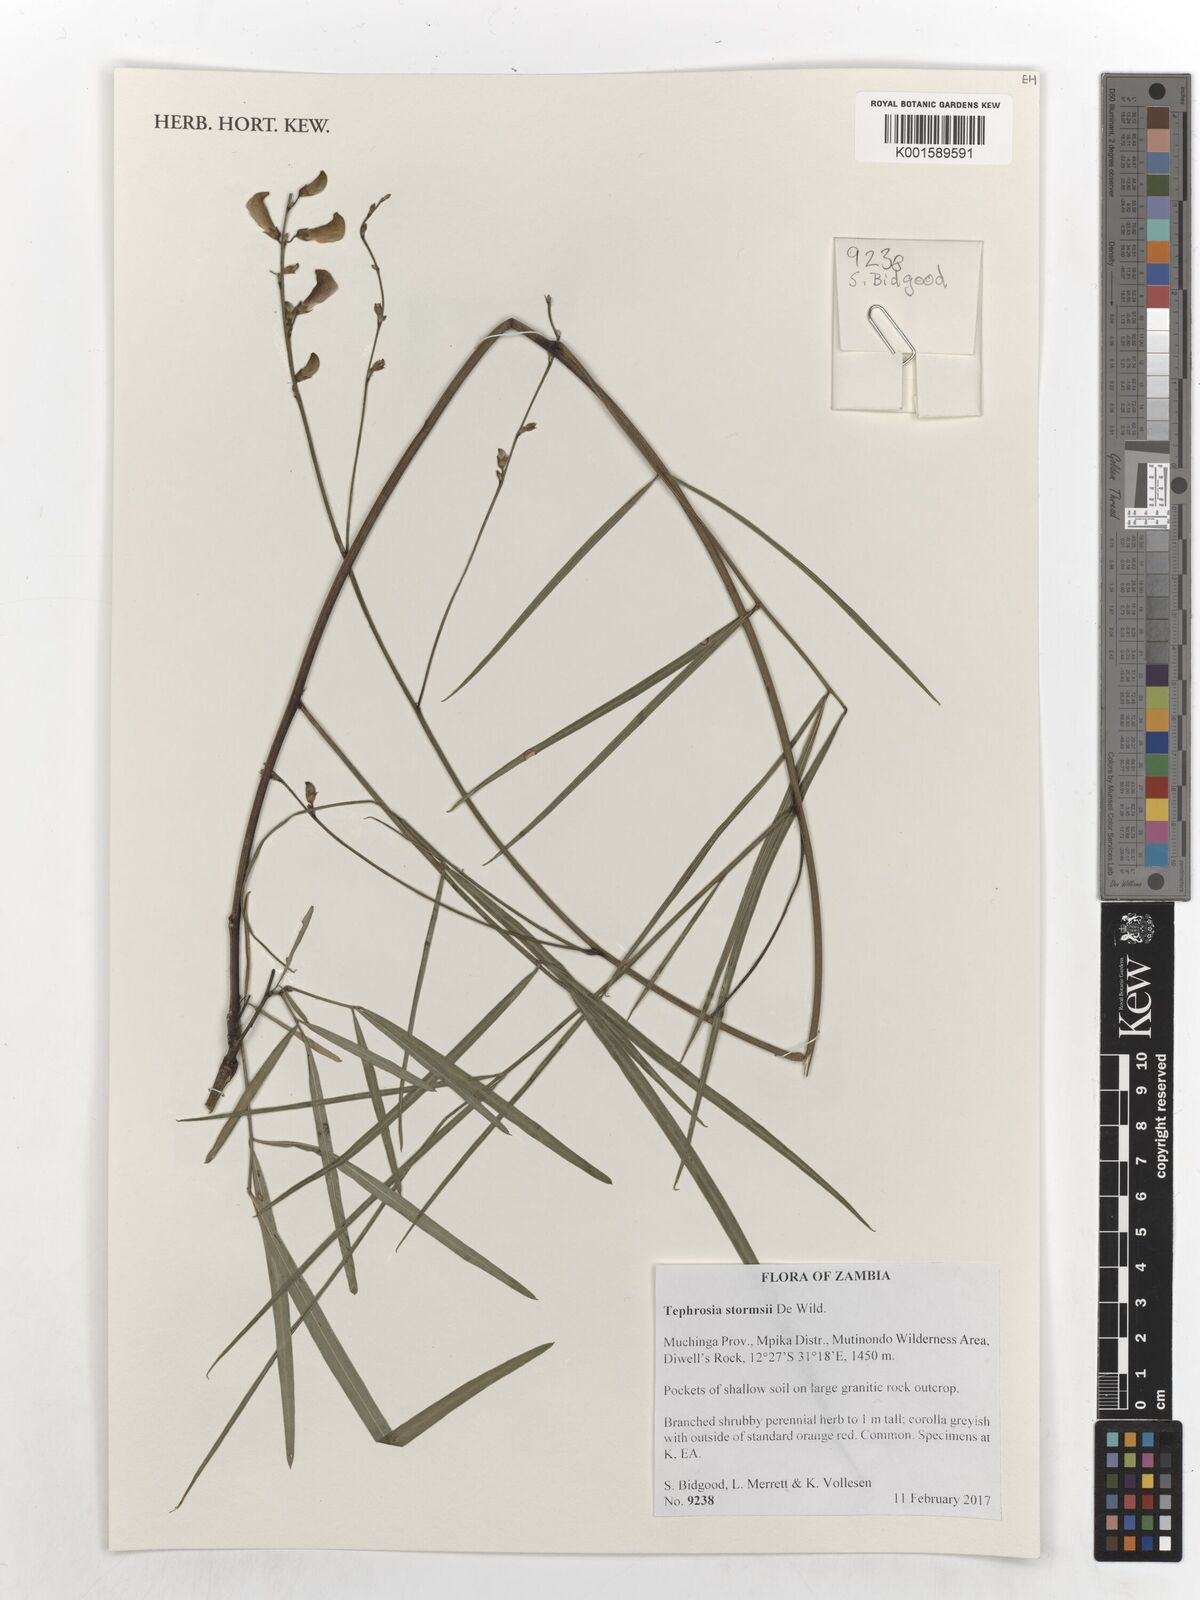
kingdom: Plantae
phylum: Tracheophyta
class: Magnoliopsida
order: Fabales
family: Fabaceae
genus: Tephrosia
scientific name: Tephrosia stormsii
